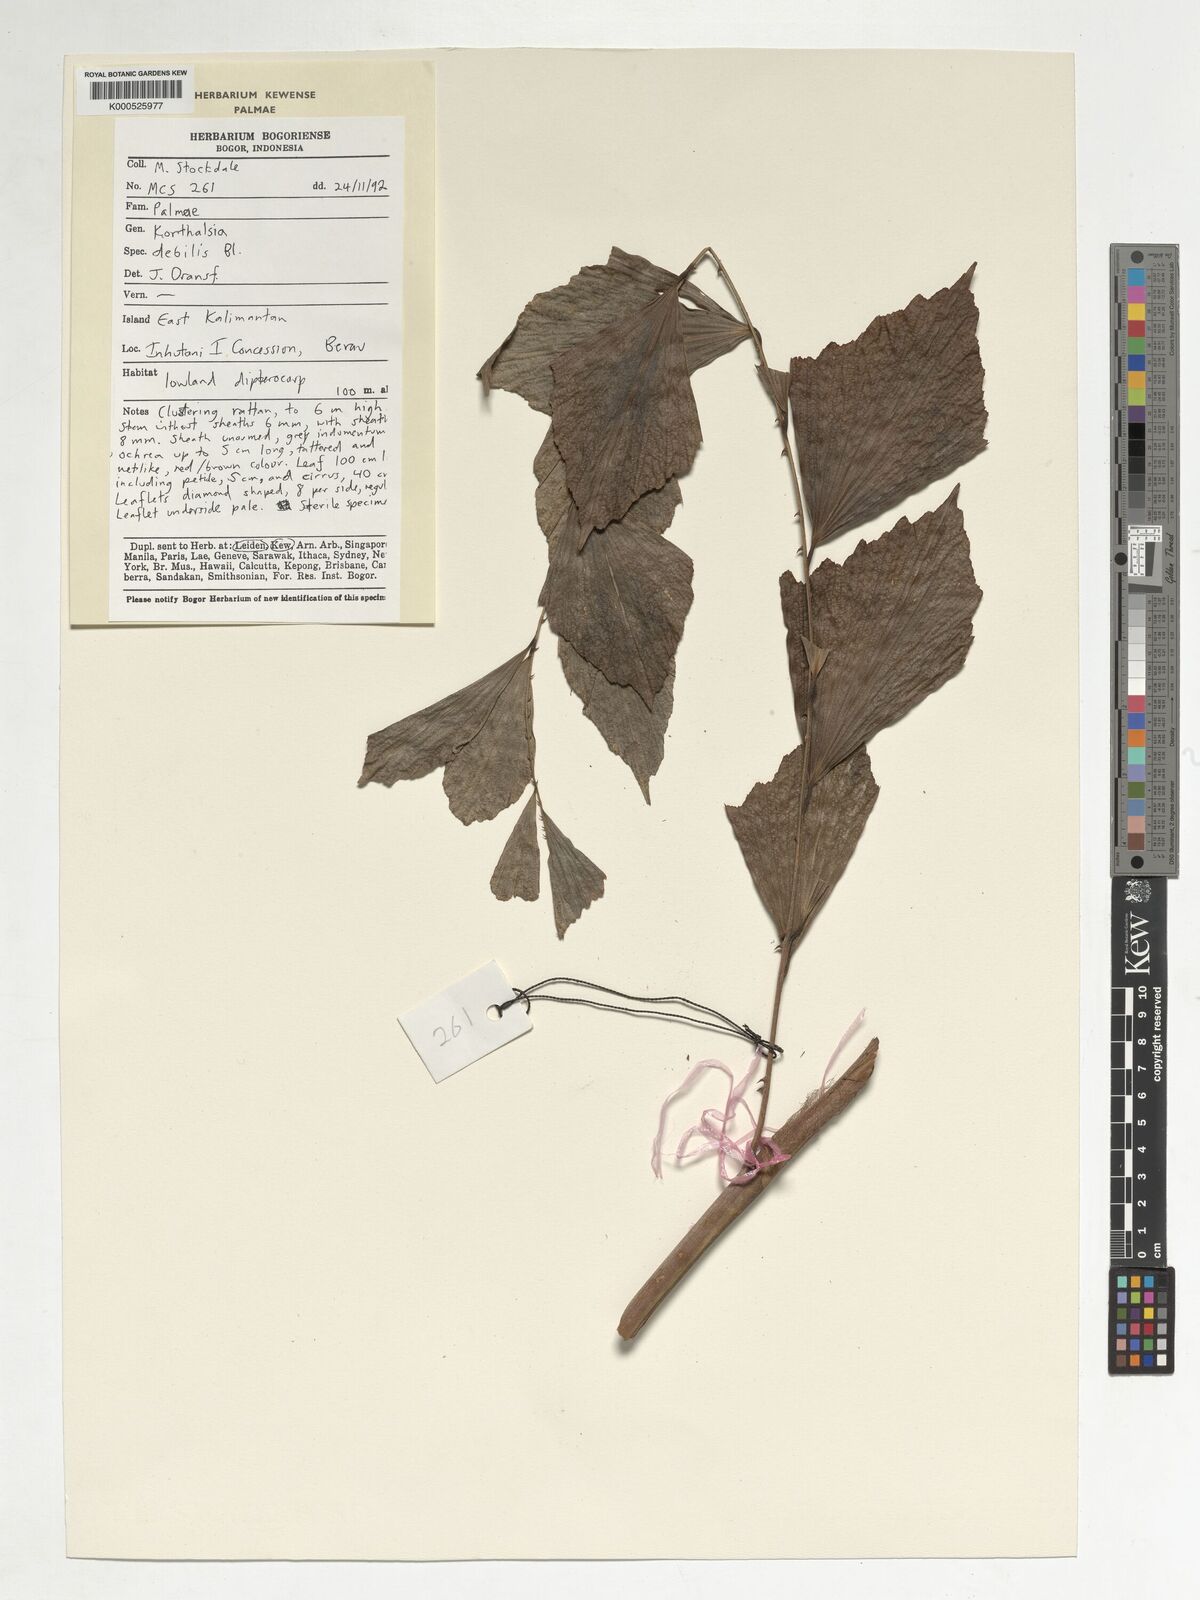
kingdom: Plantae
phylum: Tracheophyta
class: Liliopsida
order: Arecales
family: Arecaceae
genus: Korthalsia
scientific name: Korthalsia debilis
